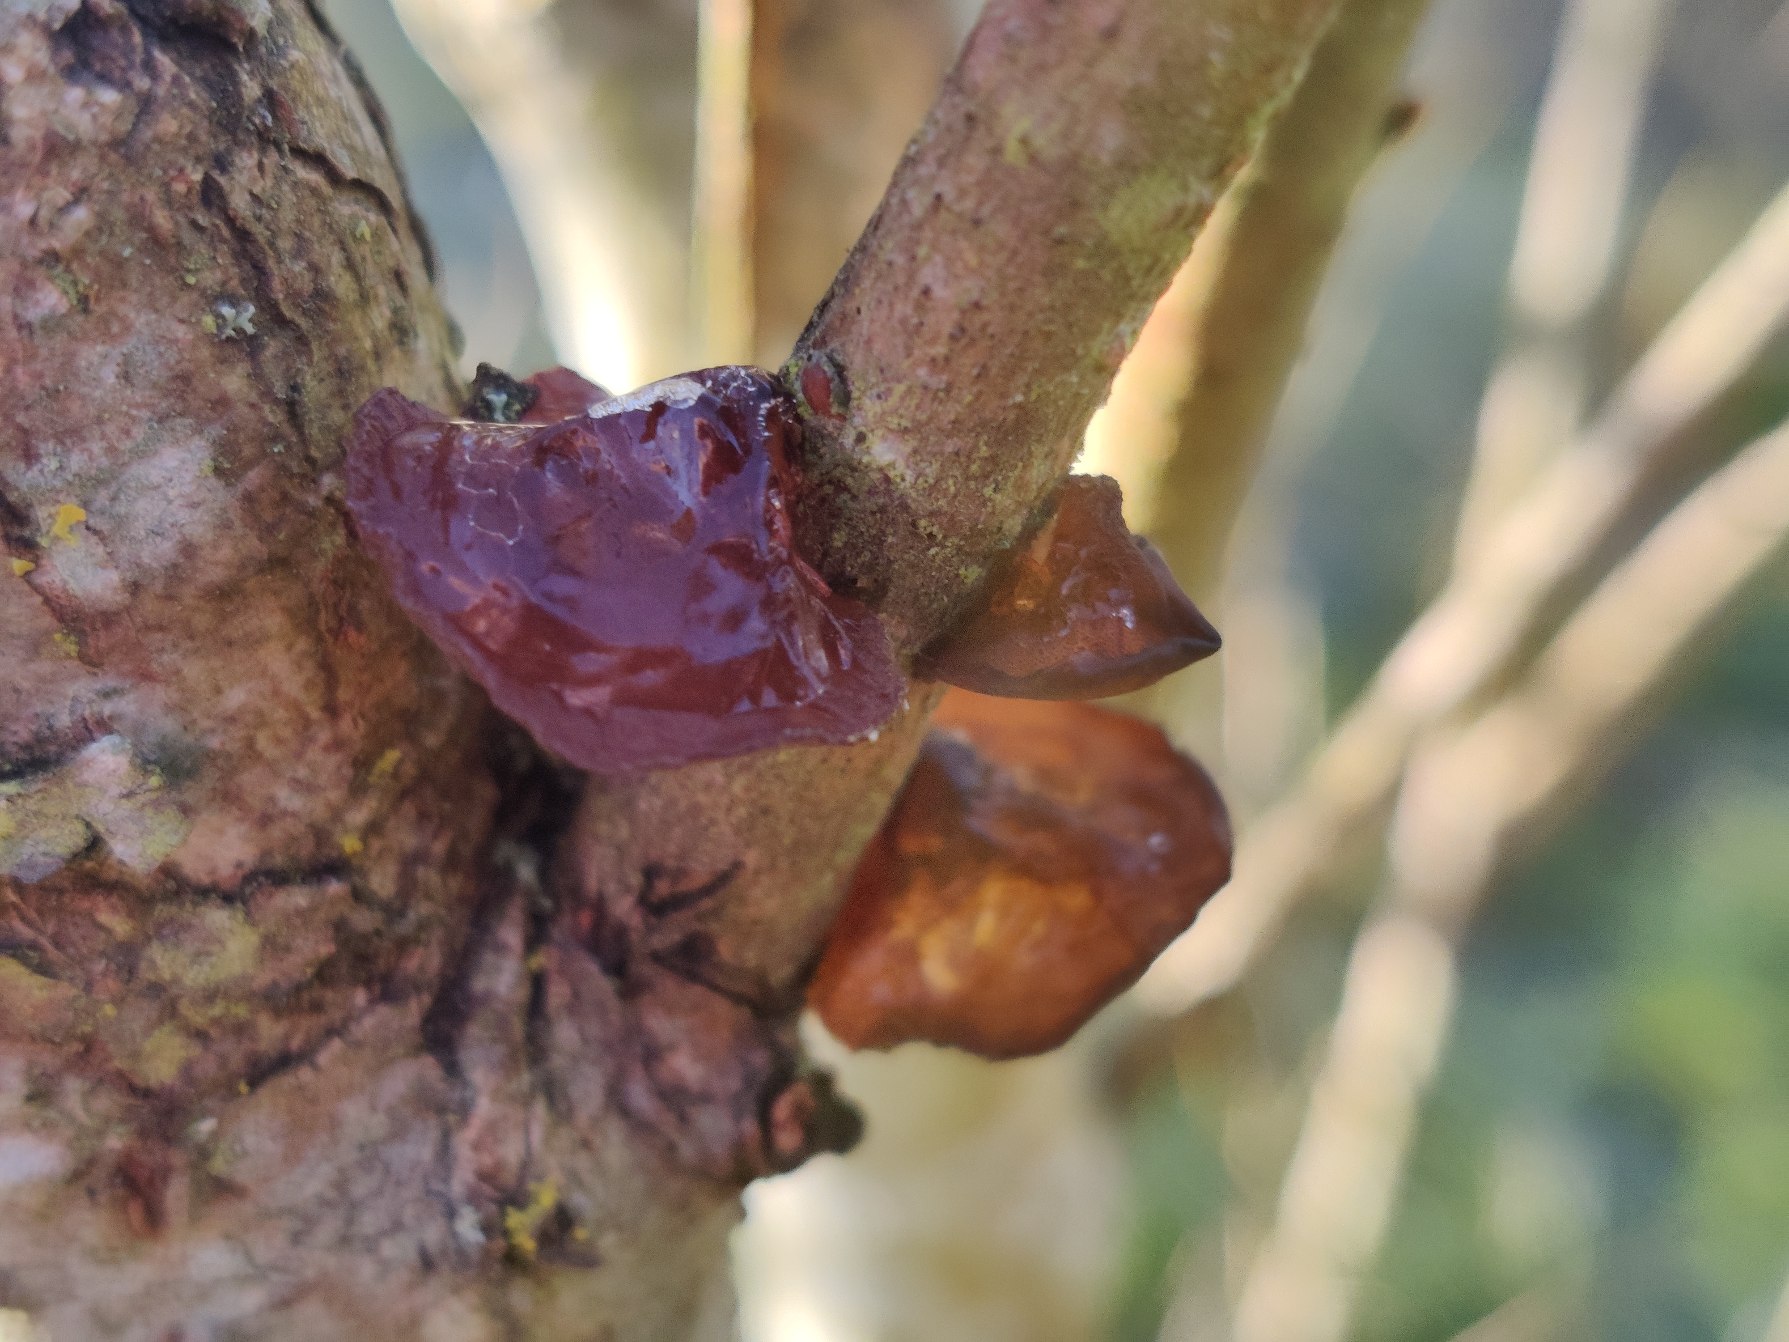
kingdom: Fungi
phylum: Basidiomycota
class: Agaricomycetes
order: Auriculariales
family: Auriculariaceae
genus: Exidia
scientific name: Exidia recisa
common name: Pile-bævretop
